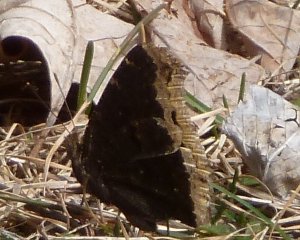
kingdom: Animalia
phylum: Arthropoda
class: Insecta
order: Lepidoptera
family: Nymphalidae
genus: Nymphalis
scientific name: Nymphalis antiopa
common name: Mourning Cloak
